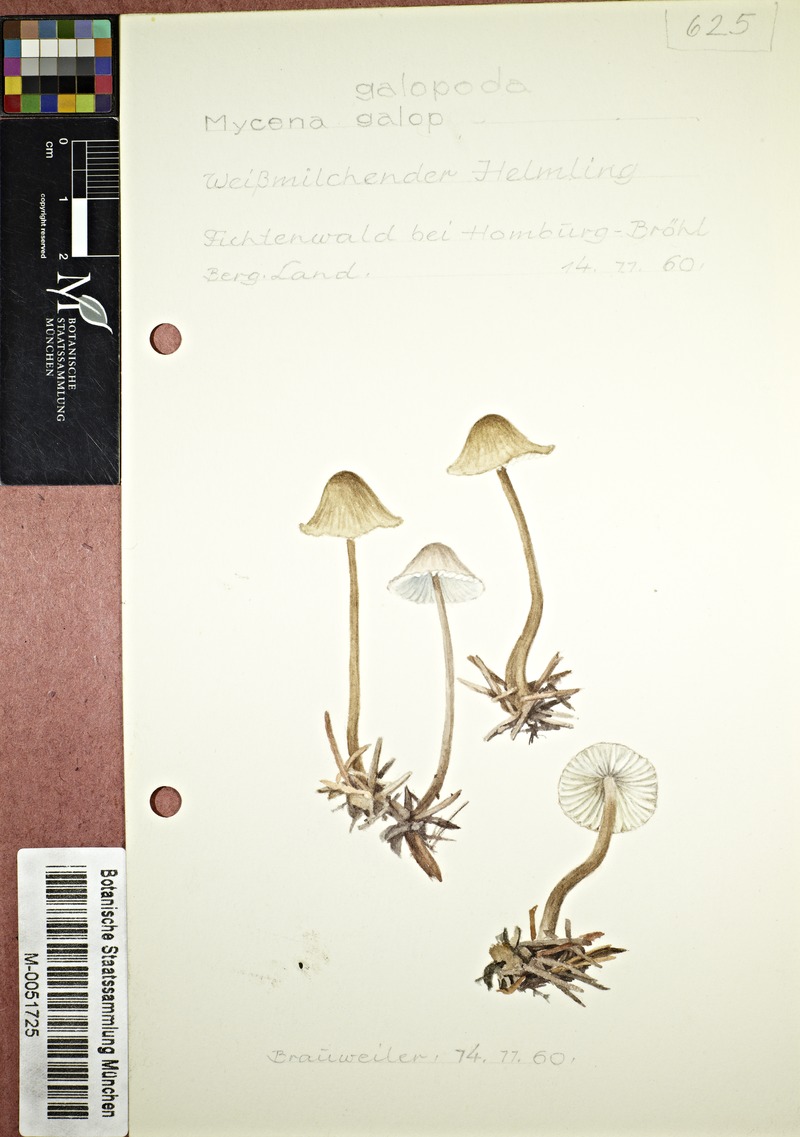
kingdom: Fungi
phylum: Basidiomycota
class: Agaricomycetes
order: Agaricales
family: Mycenaceae
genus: Mycena
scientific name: Mycena galopus
